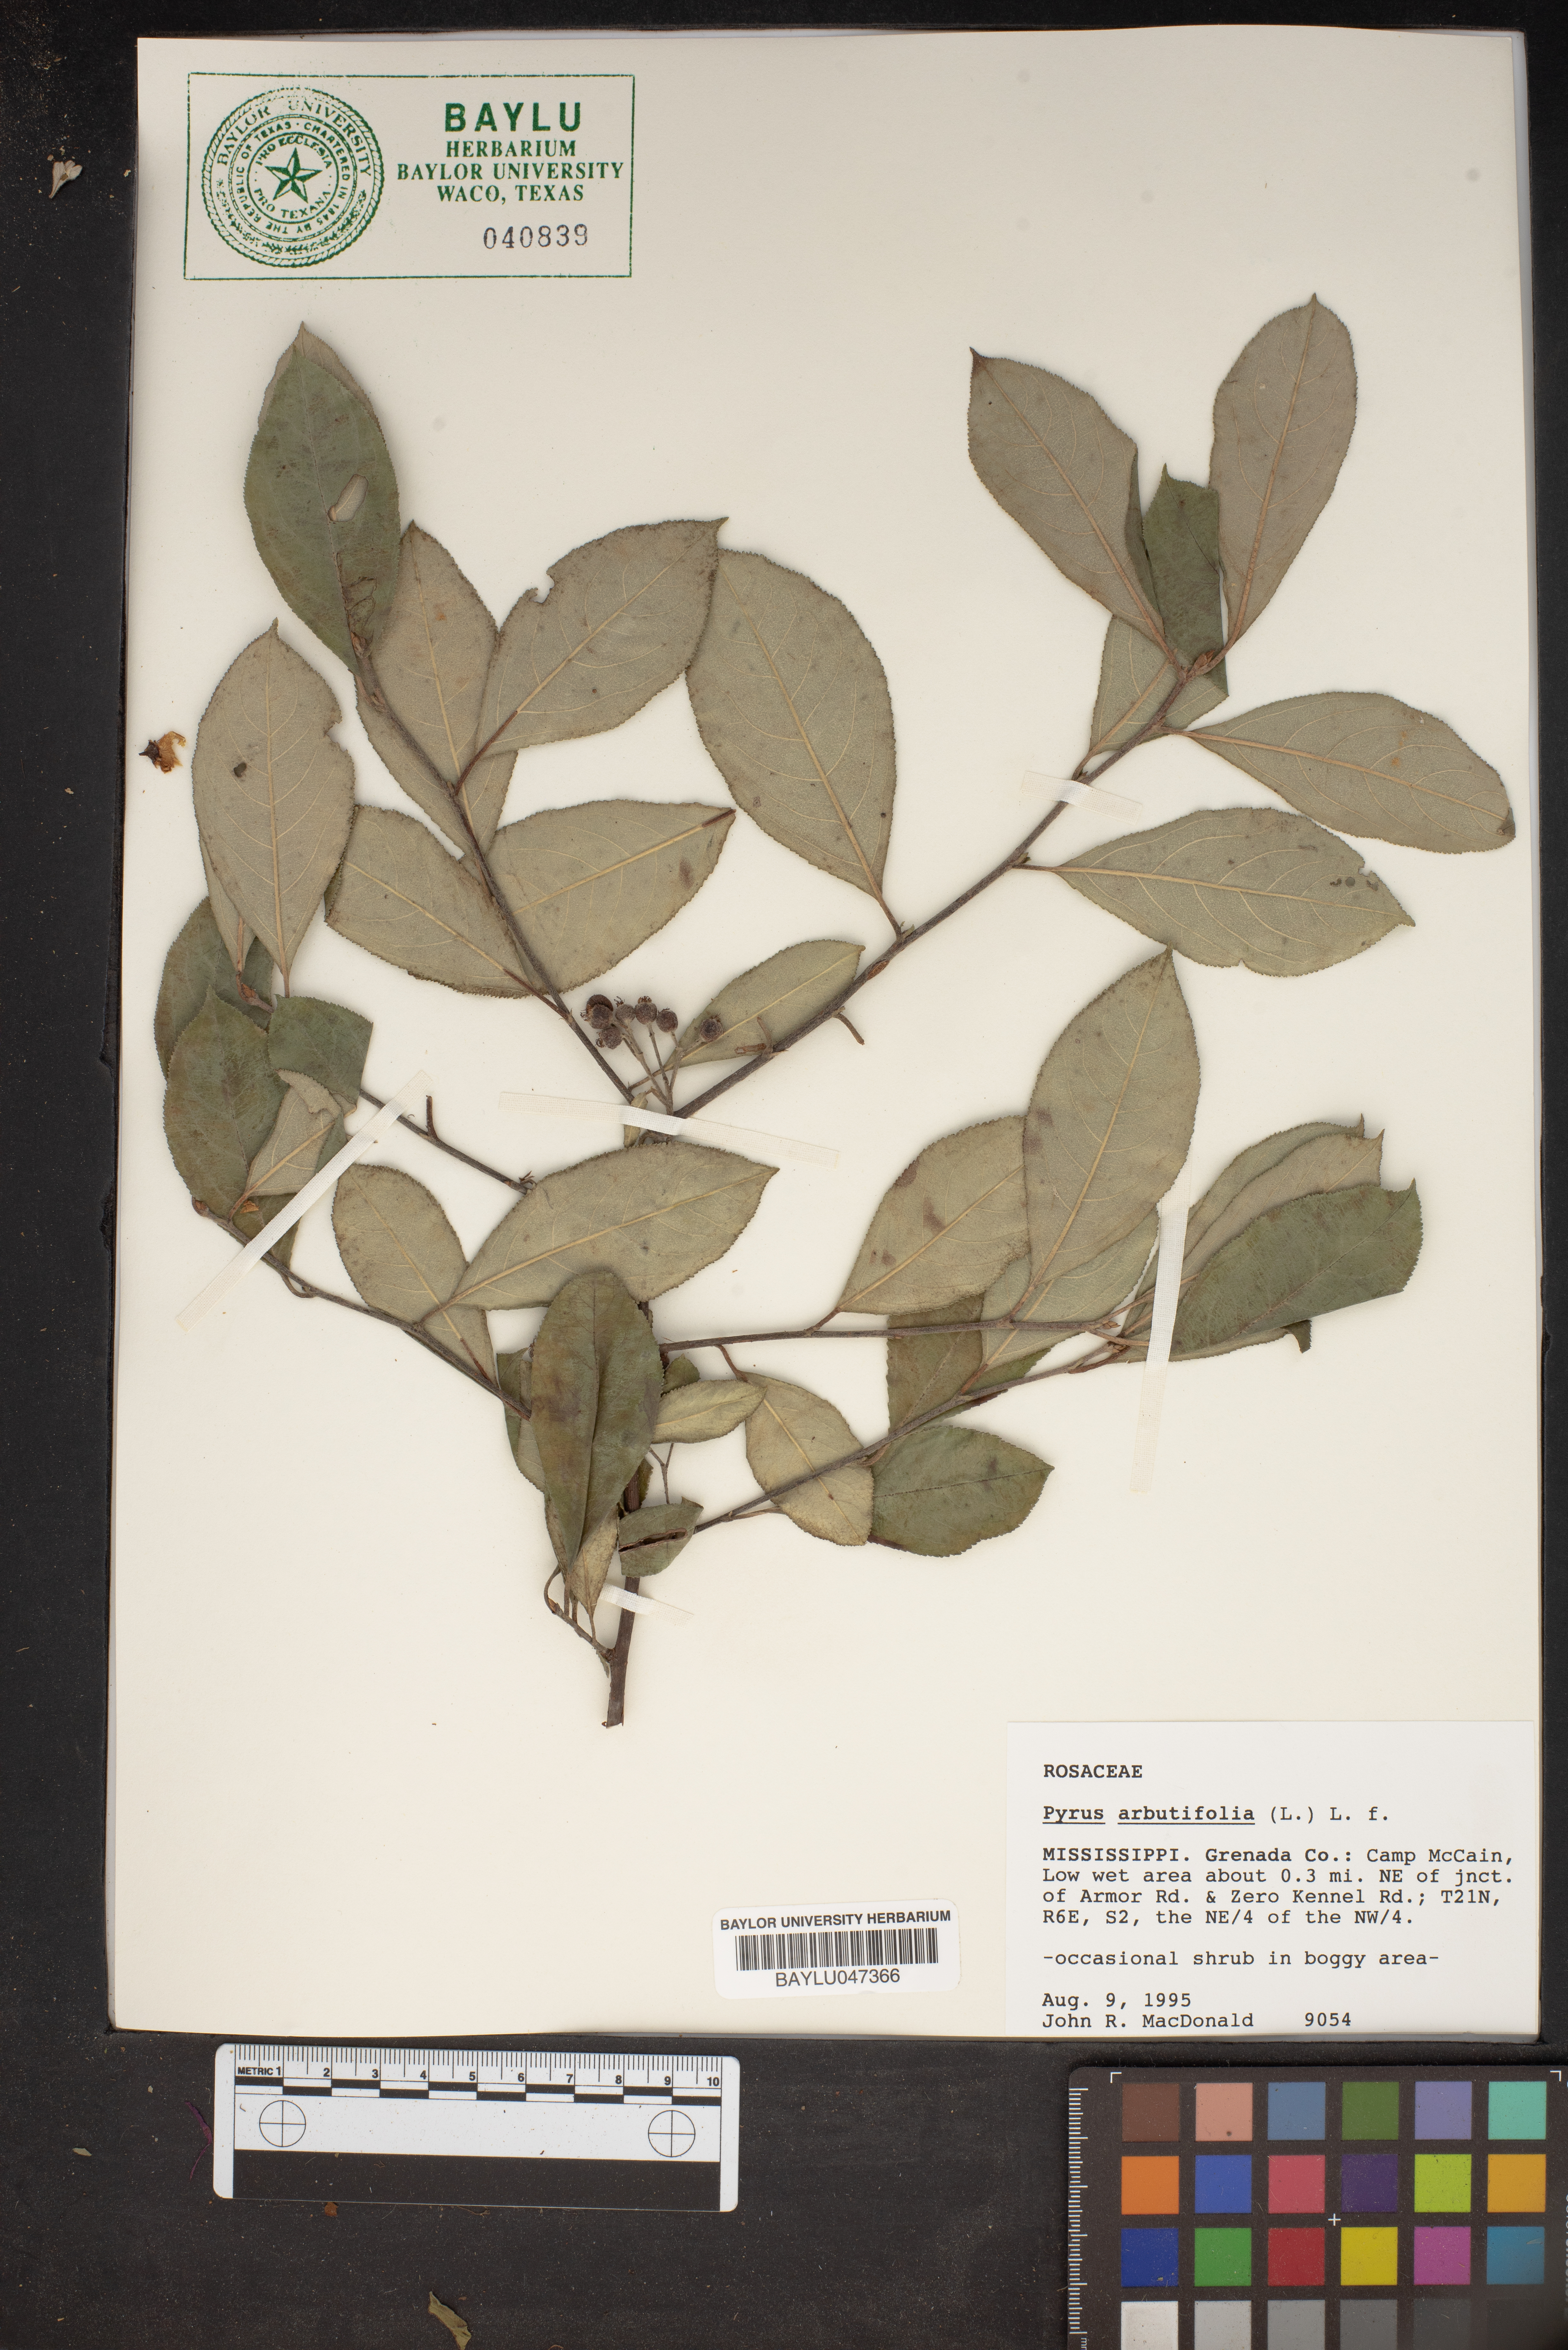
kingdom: Plantae
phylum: Tracheophyta
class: Magnoliopsida
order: Rosales
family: Rosaceae
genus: Aronia
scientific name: Aronia arbutifolia
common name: Red chokeberry
